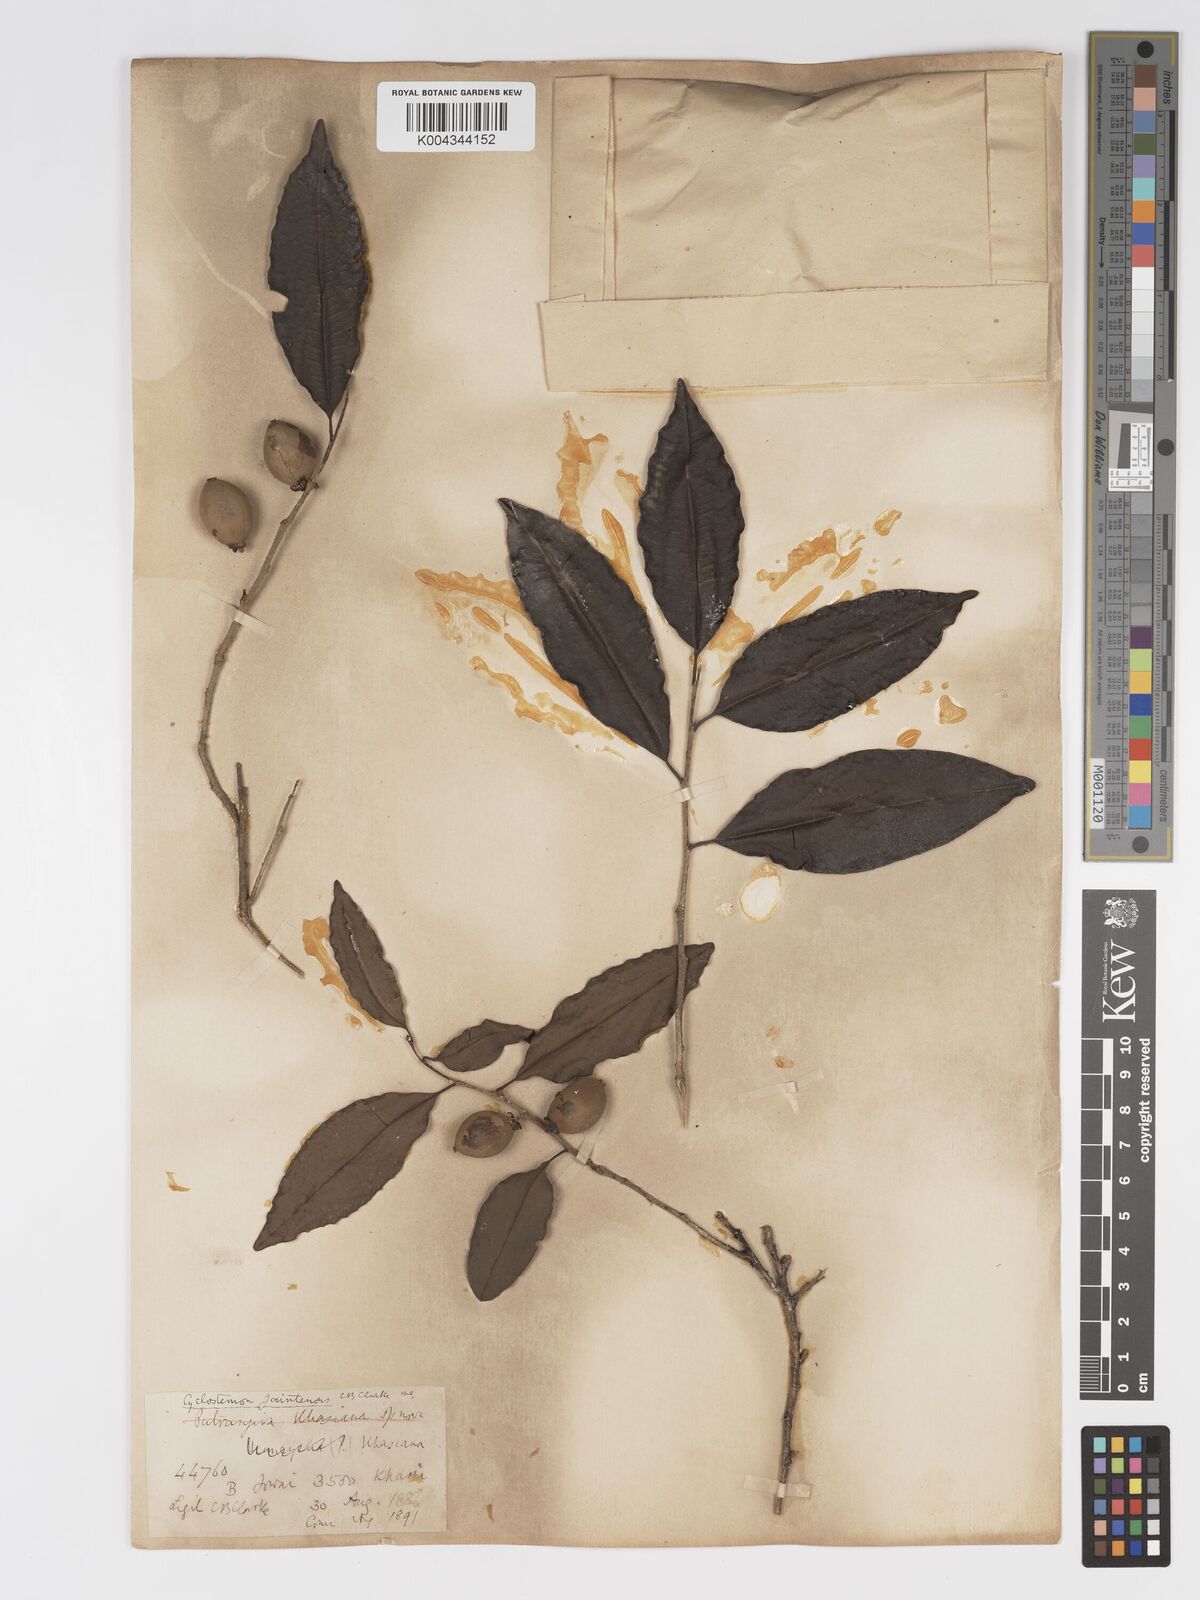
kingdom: Plantae
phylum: Tracheophyta
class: Magnoliopsida
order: Malpighiales
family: Putranjivaceae
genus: Drypetes
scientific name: Drypetes jaintensis
